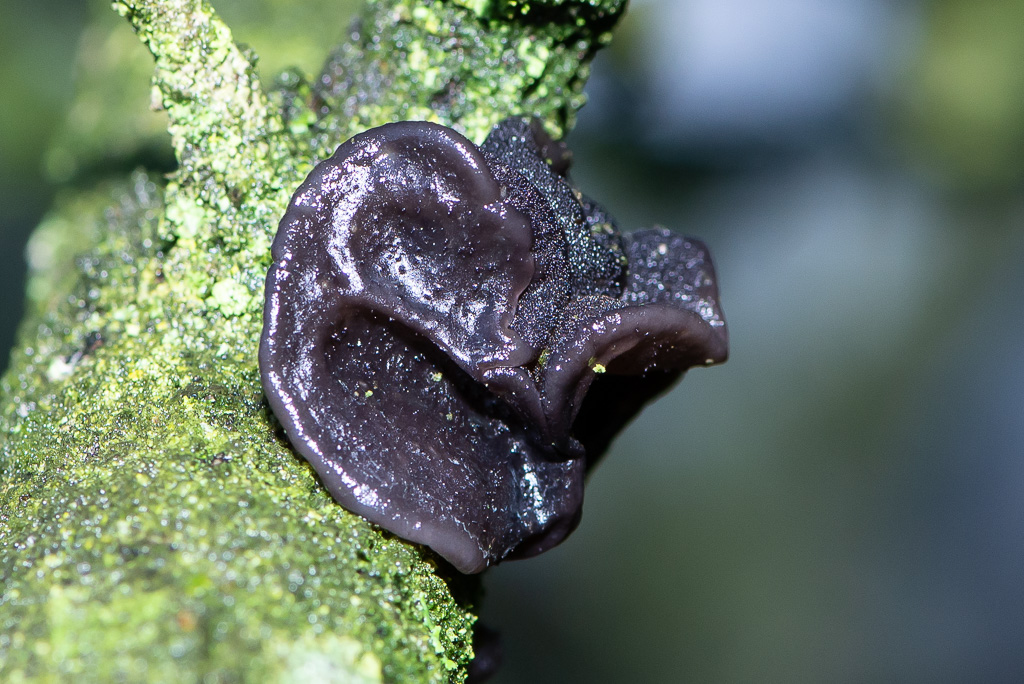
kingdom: Fungi
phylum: Basidiomycota
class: Agaricomycetes
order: Auriculariales
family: Auriculariaceae
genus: Exidia
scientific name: Exidia glandulosa
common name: ege-bævretop
